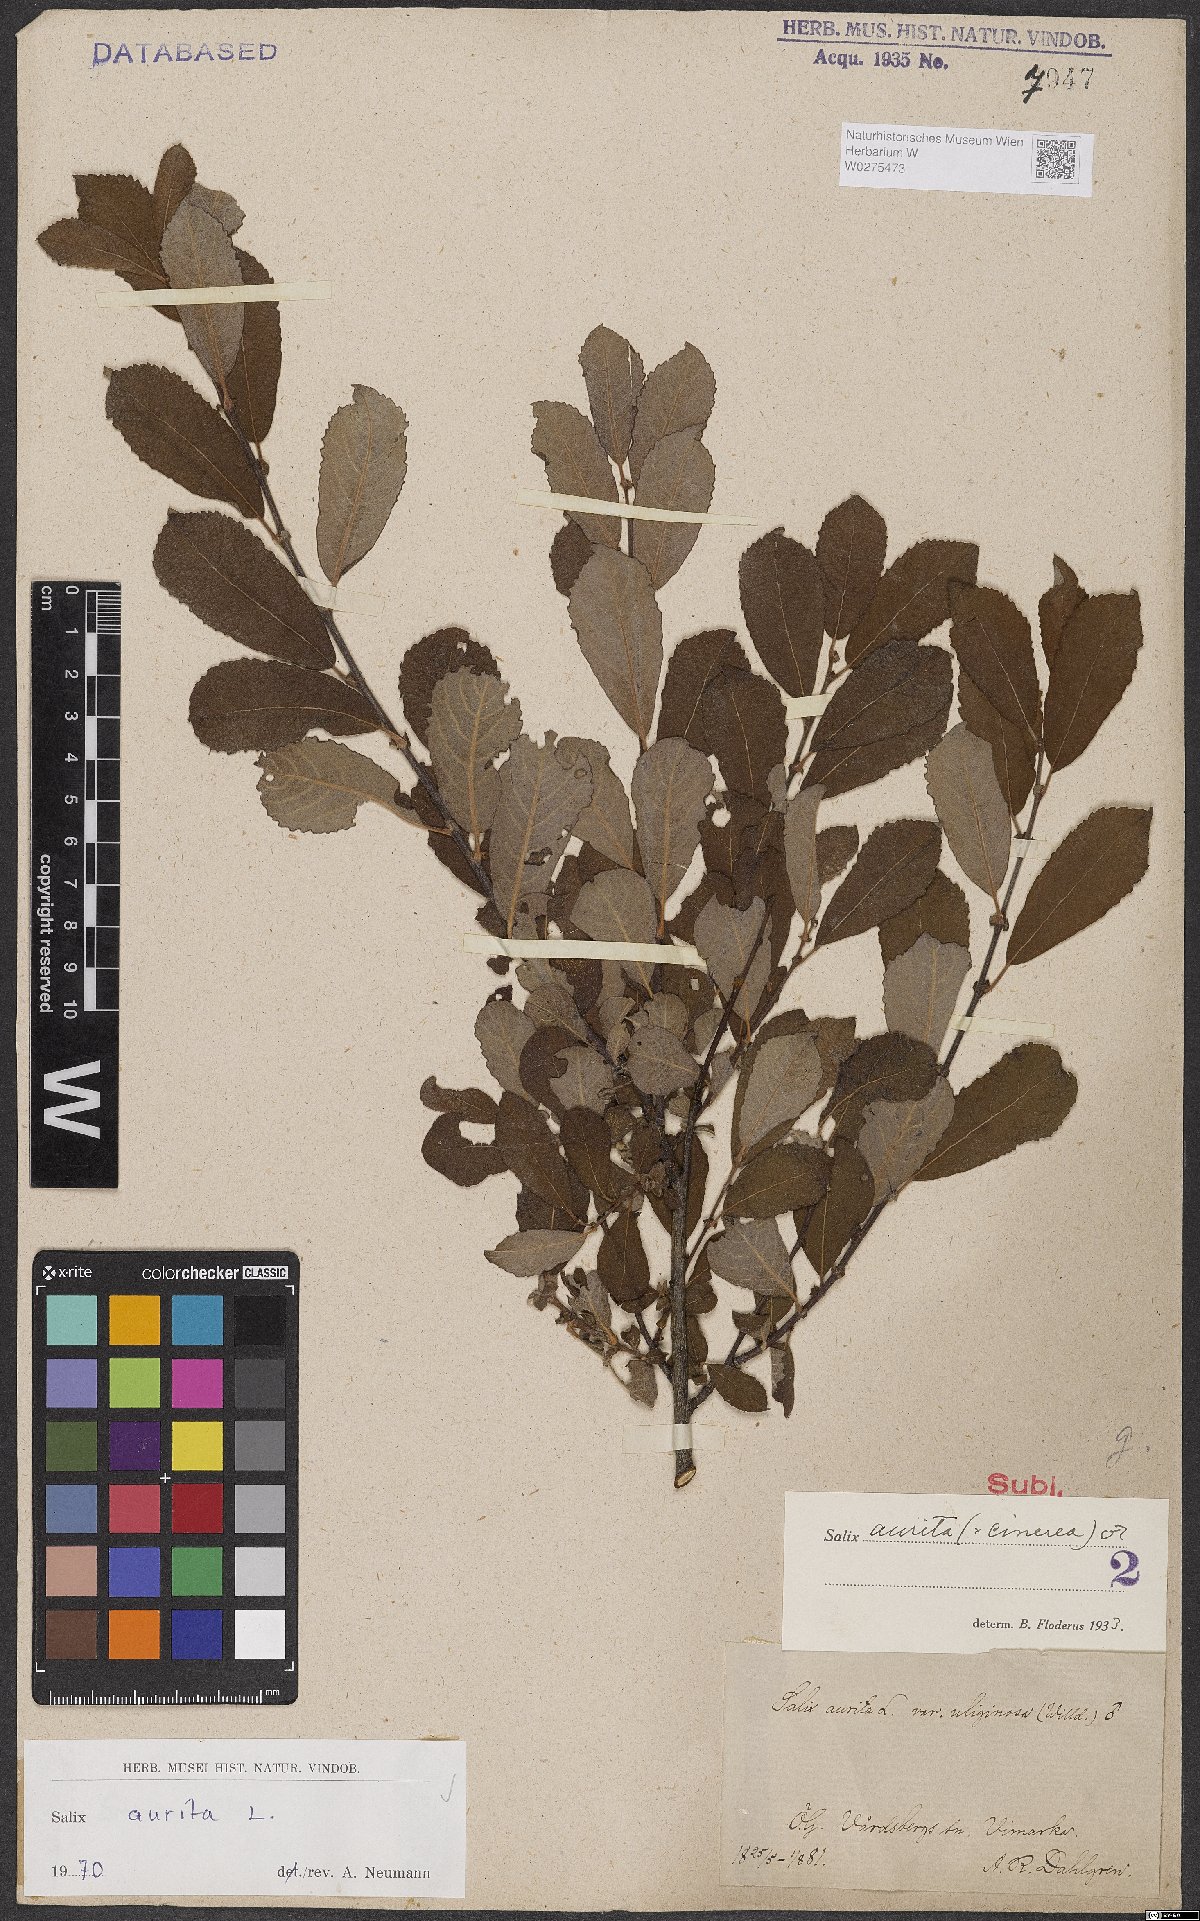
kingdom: Plantae
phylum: Tracheophyta
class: Magnoliopsida
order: Malpighiales
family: Salicaceae
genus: Salix
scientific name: Salix aurita
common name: Eared willow
